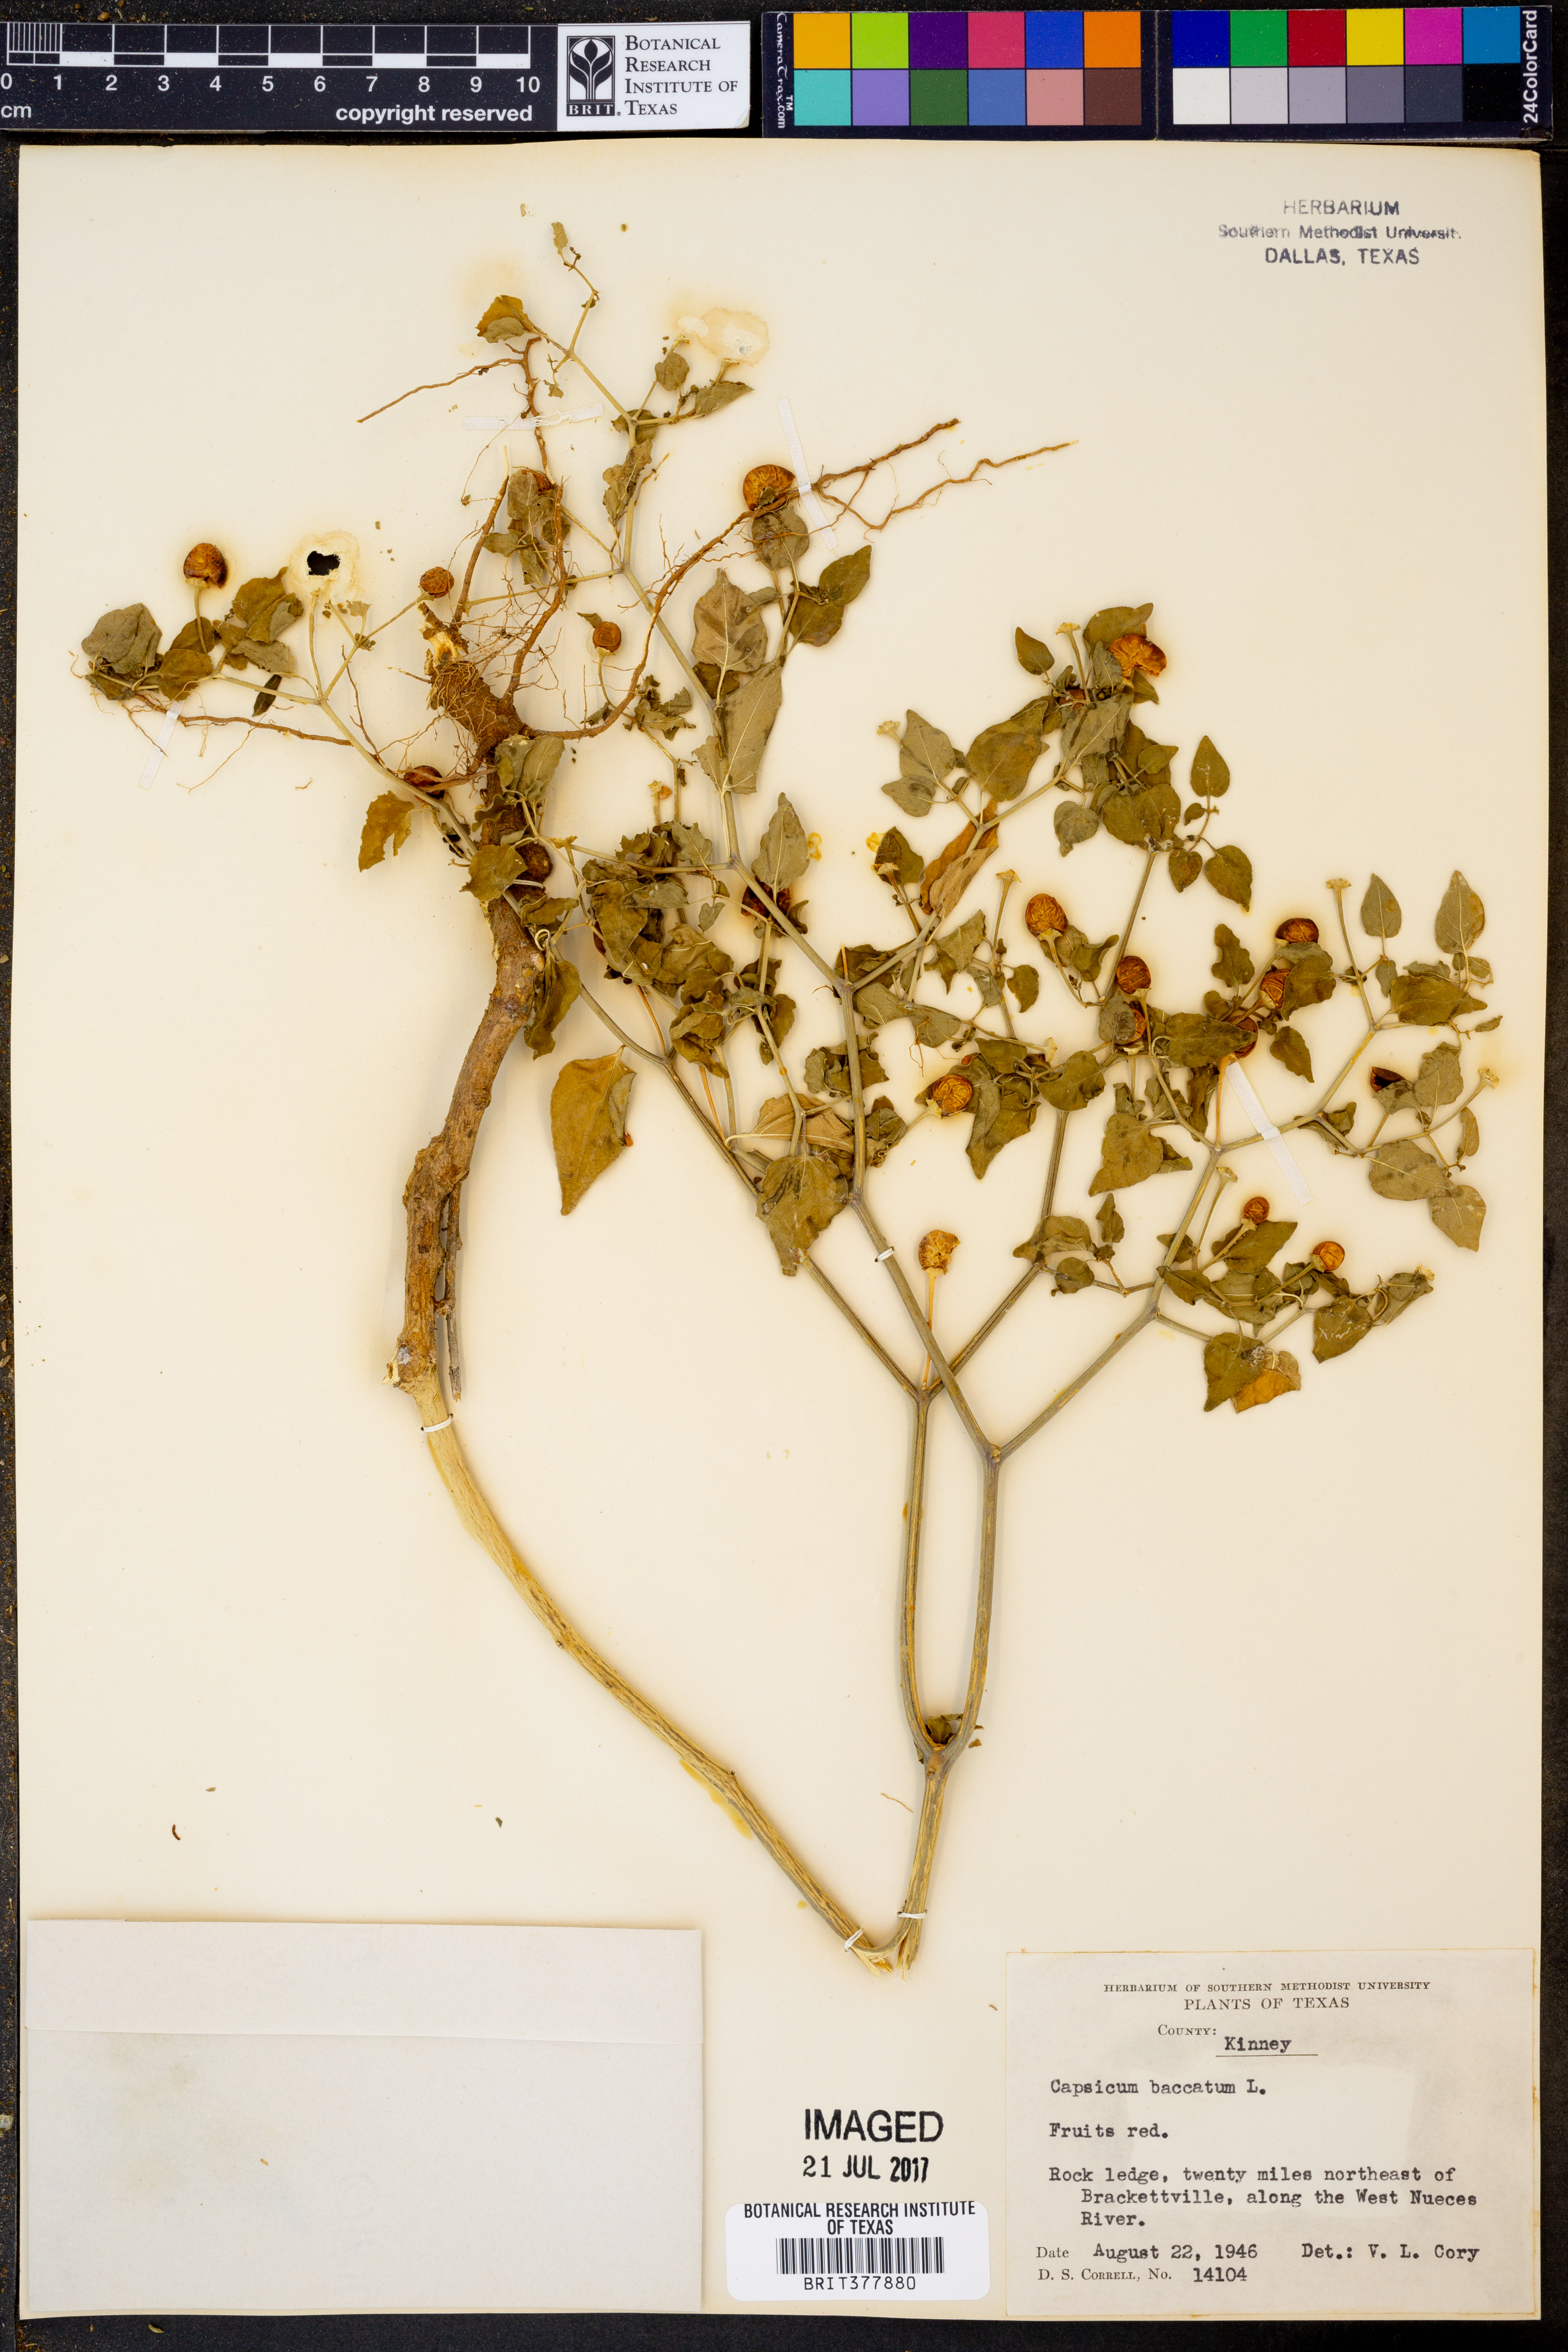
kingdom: Plantae
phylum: Tracheophyta
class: Magnoliopsida
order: Solanales
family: Solanaceae
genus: Capsicum
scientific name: Capsicum baccatum
